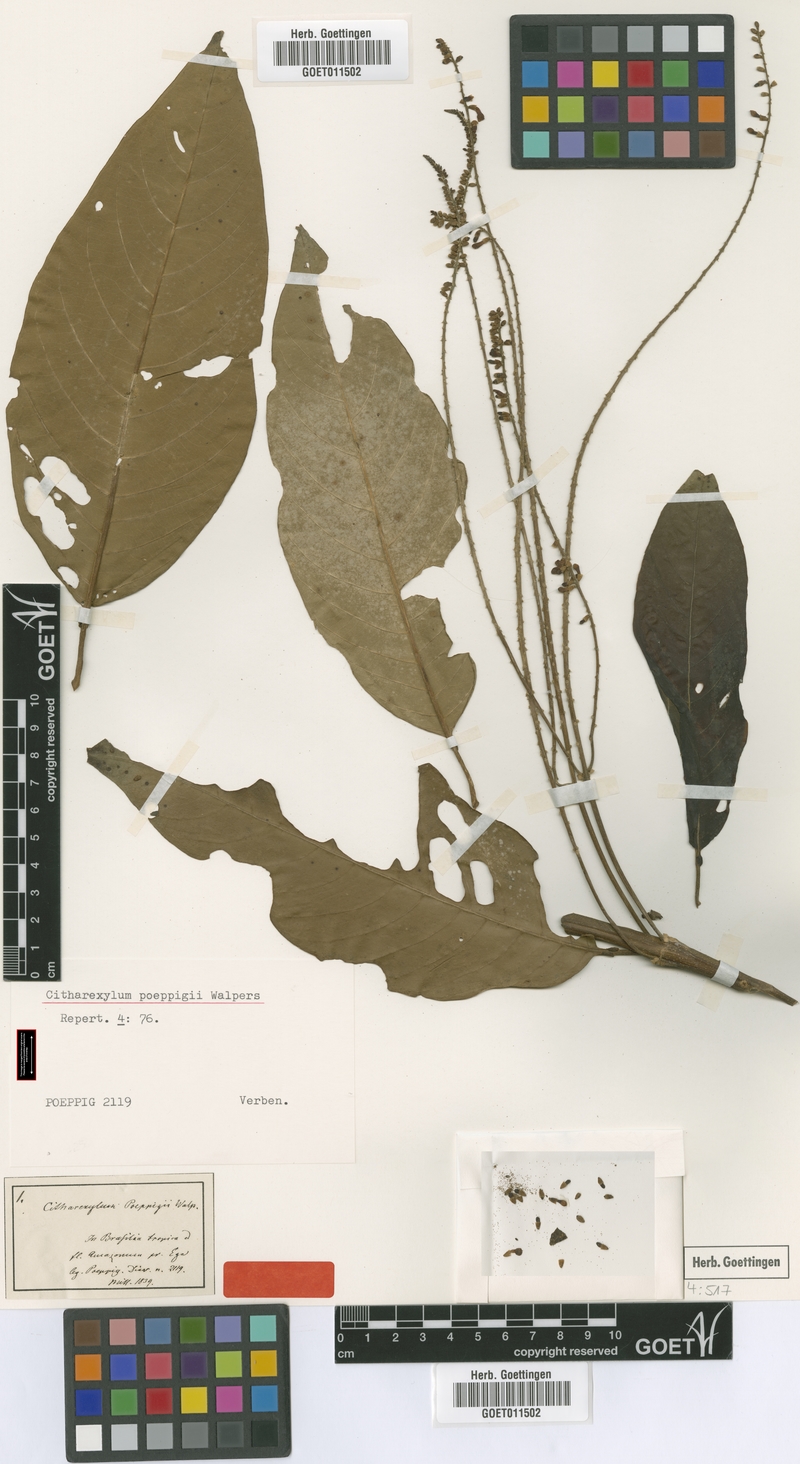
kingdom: Plantae
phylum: Tracheophyta
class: Magnoliopsida
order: Lamiales
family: Verbenaceae
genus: Citharexylum
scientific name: Citharexylum poeppigii
